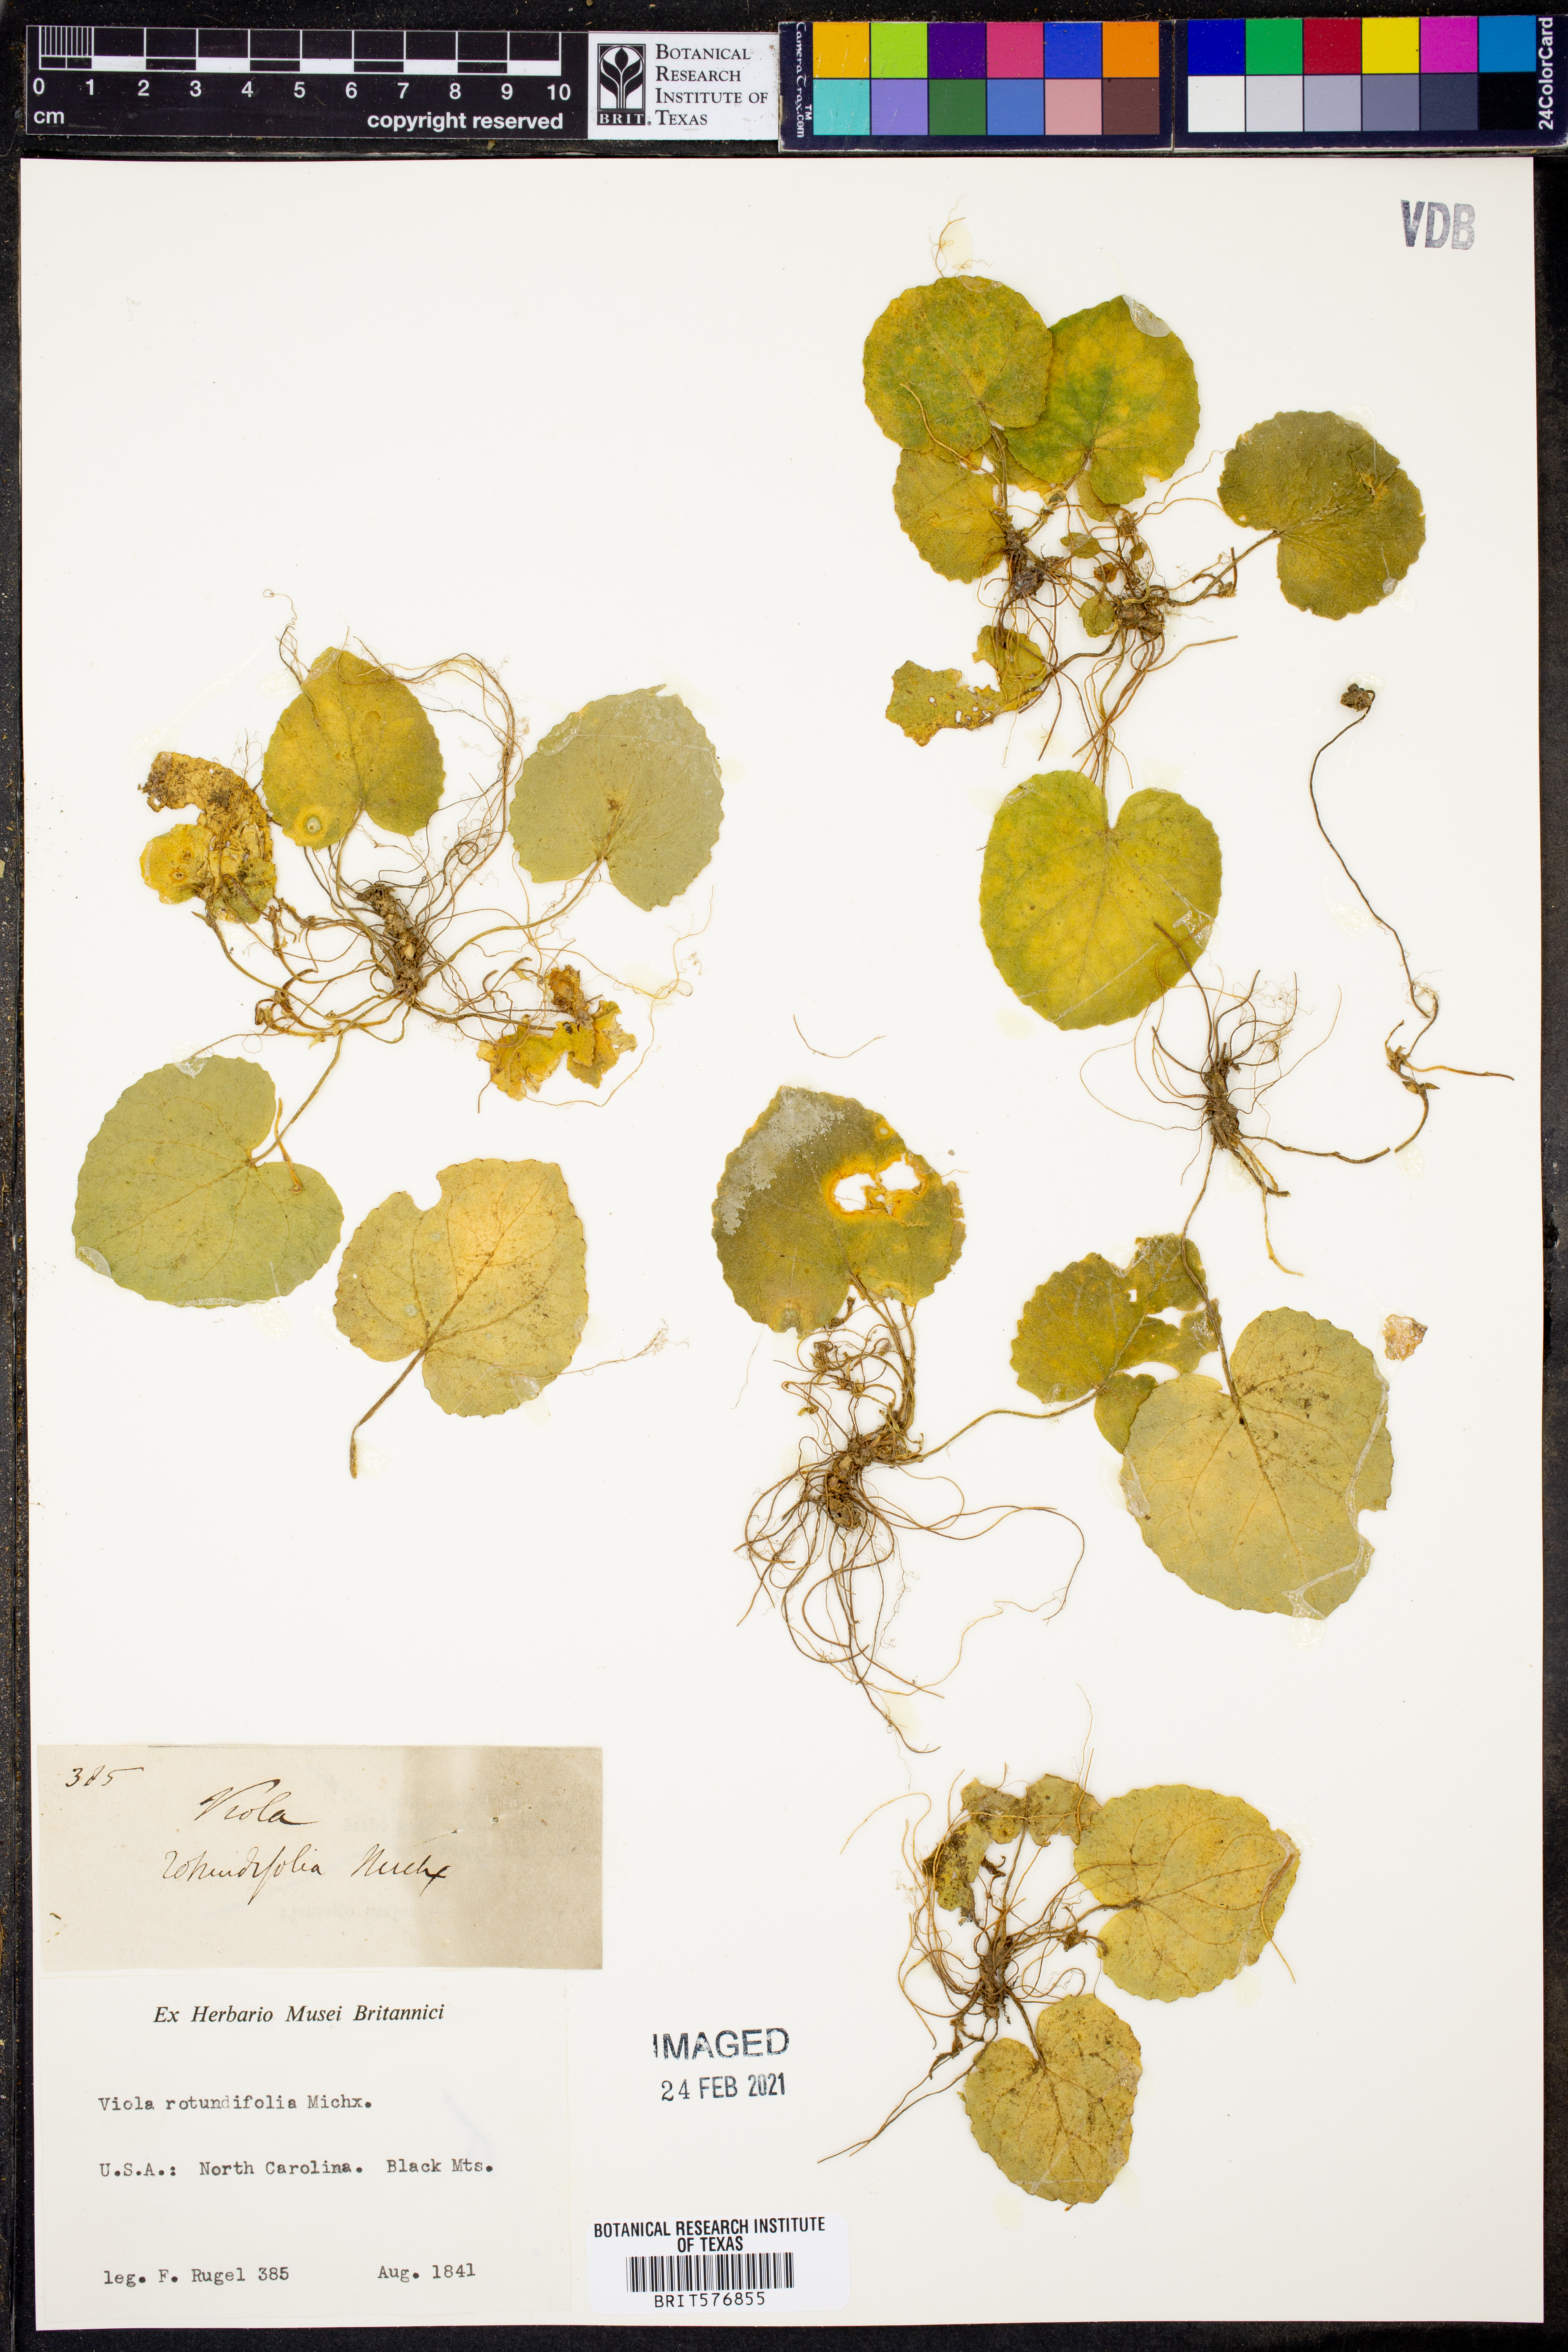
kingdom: Plantae
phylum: Tracheophyta
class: Magnoliopsida
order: Malpighiales
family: Violaceae
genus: Viola
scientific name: Viola rotundifolia
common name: Early yellow violet
